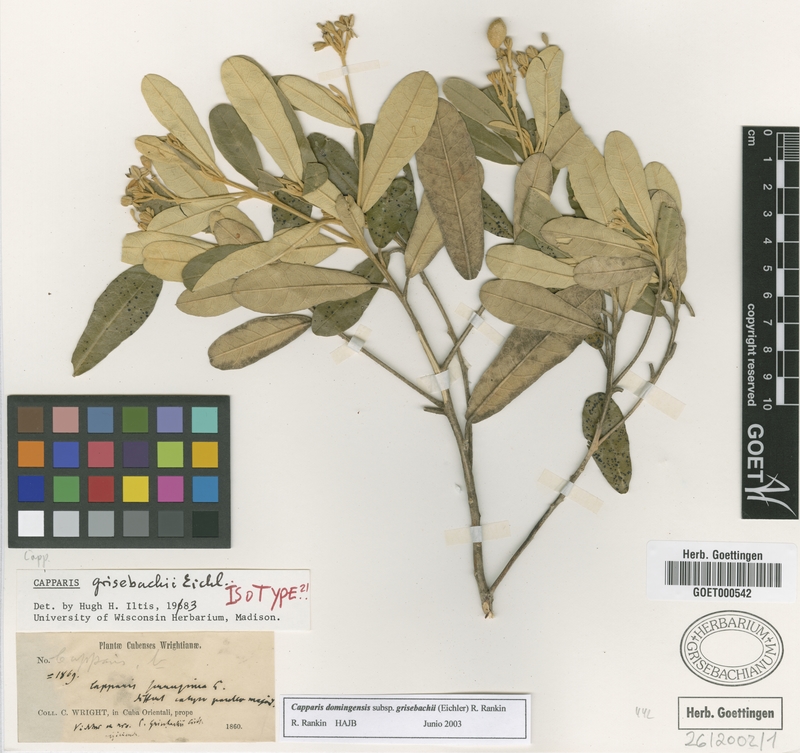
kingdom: Plantae
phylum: Tracheophyta
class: Magnoliopsida
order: Brassicales
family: Capparaceae
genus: Quadrella
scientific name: Quadrella domingensis
